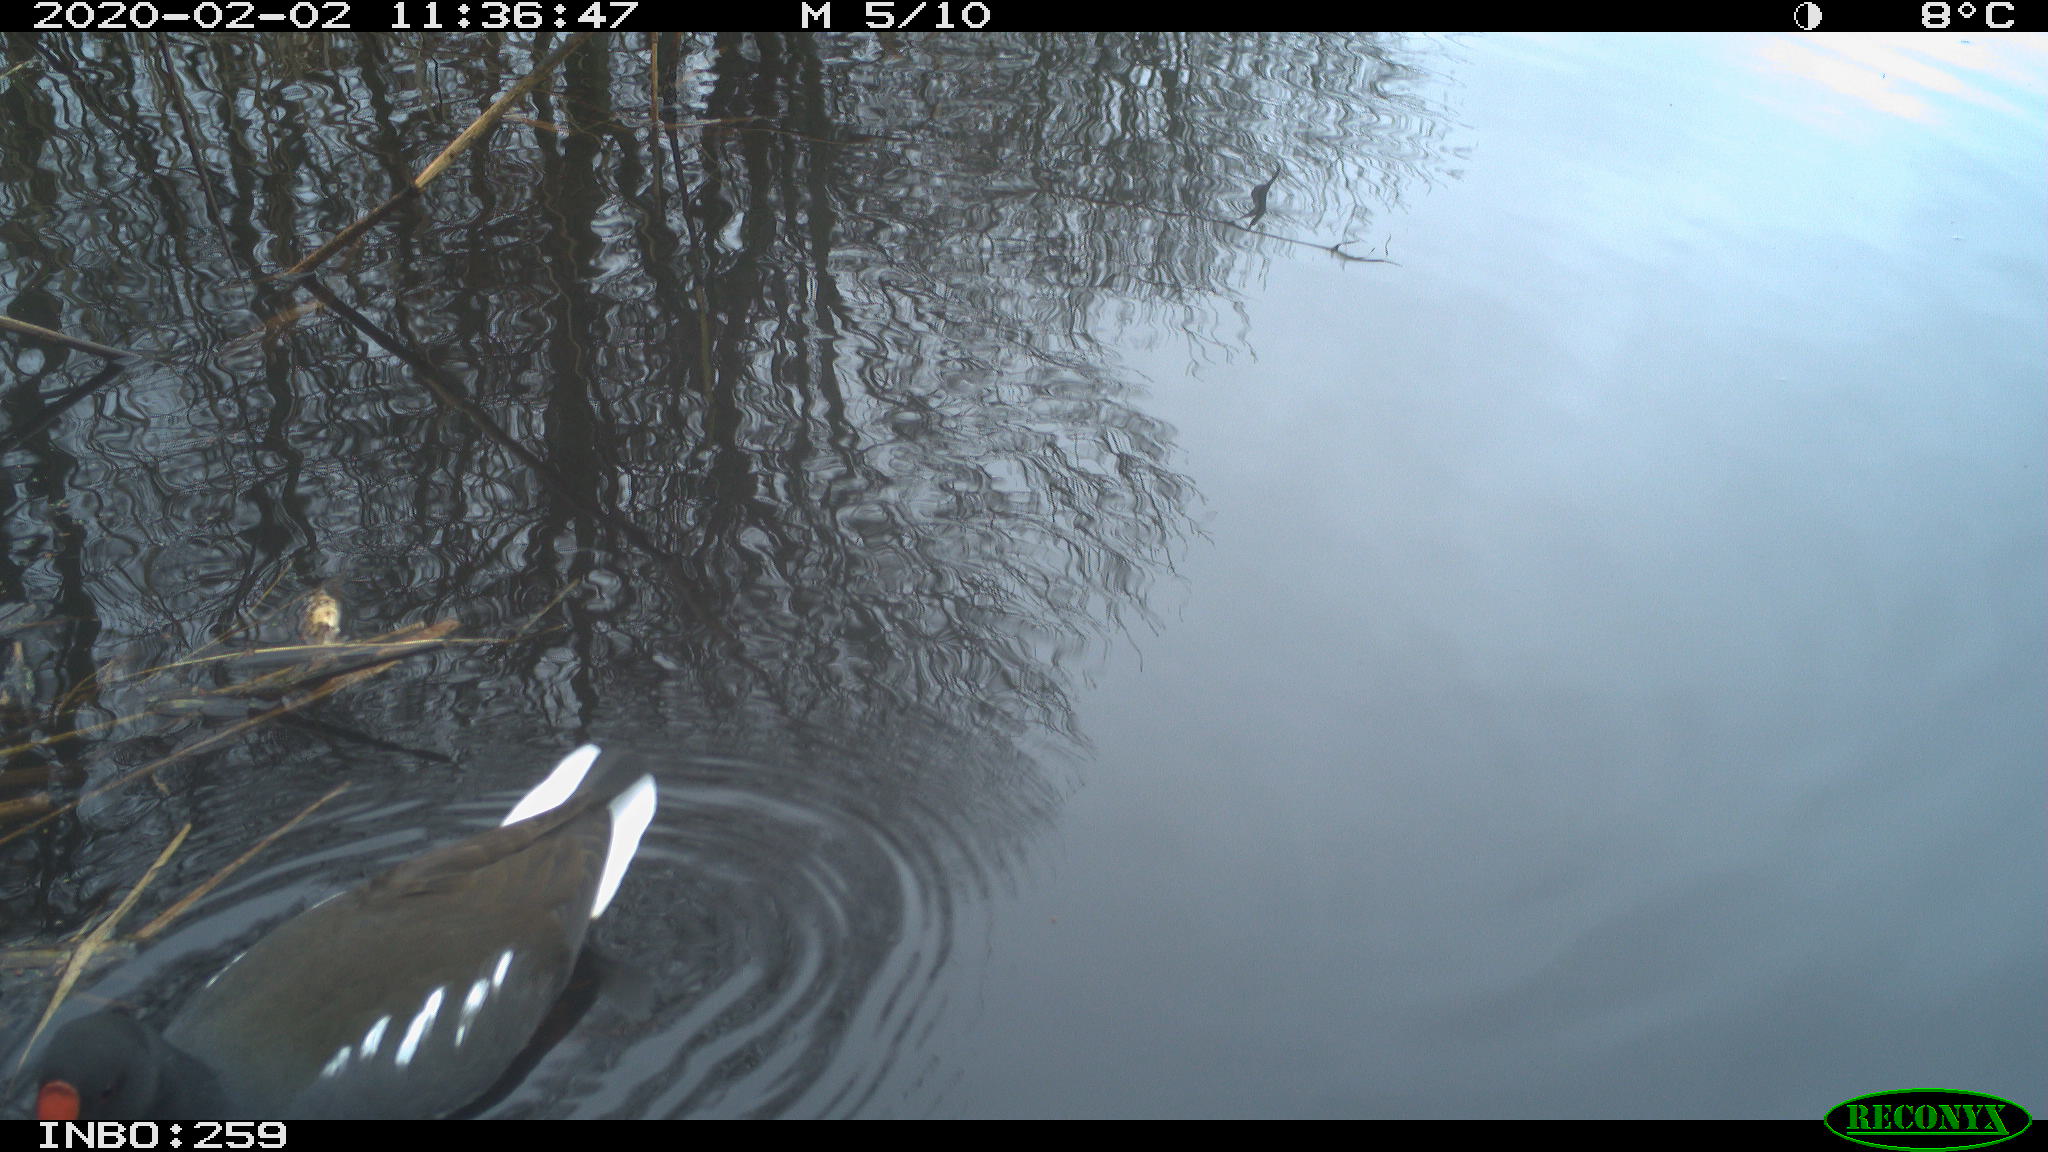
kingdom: Animalia
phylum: Chordata
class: Aves
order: Gruiformes
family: Rallidae
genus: Gallinula
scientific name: Gallinula chloropus
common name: Common moorhen
